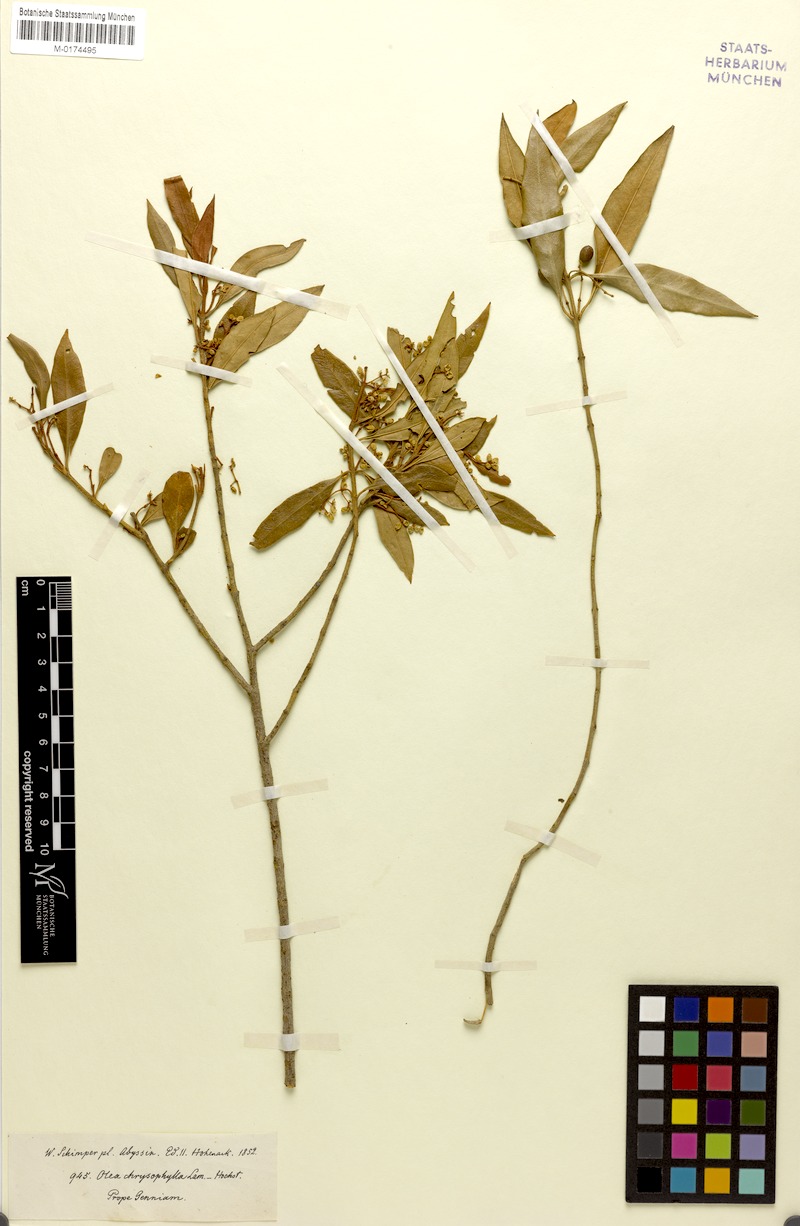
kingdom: Plantae
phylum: Tracheophyta
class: Magnoliopsida
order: Lamiales
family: Oleaceae
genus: Olea
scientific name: Olea europaea
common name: Olive
